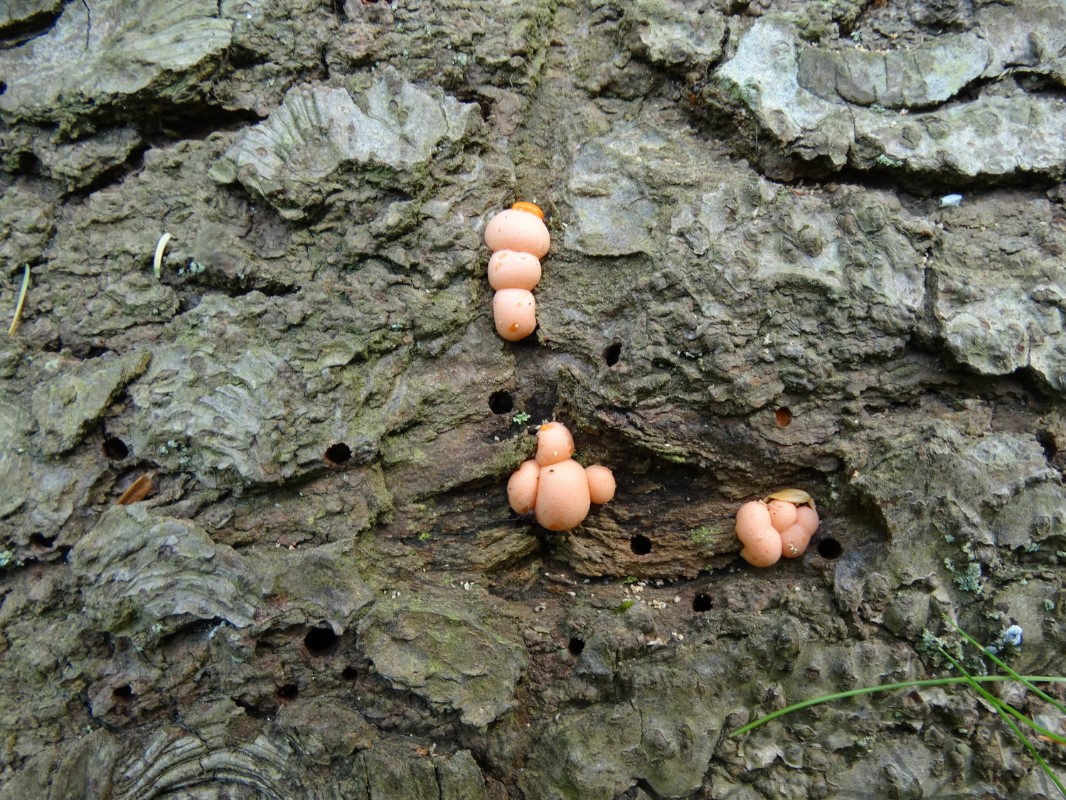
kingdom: Protozoa
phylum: Mycetozoa
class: Myxomycetes
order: Cribrariales
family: Tubiferaceae
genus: Lycogala
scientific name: Lycogala epidendrum
